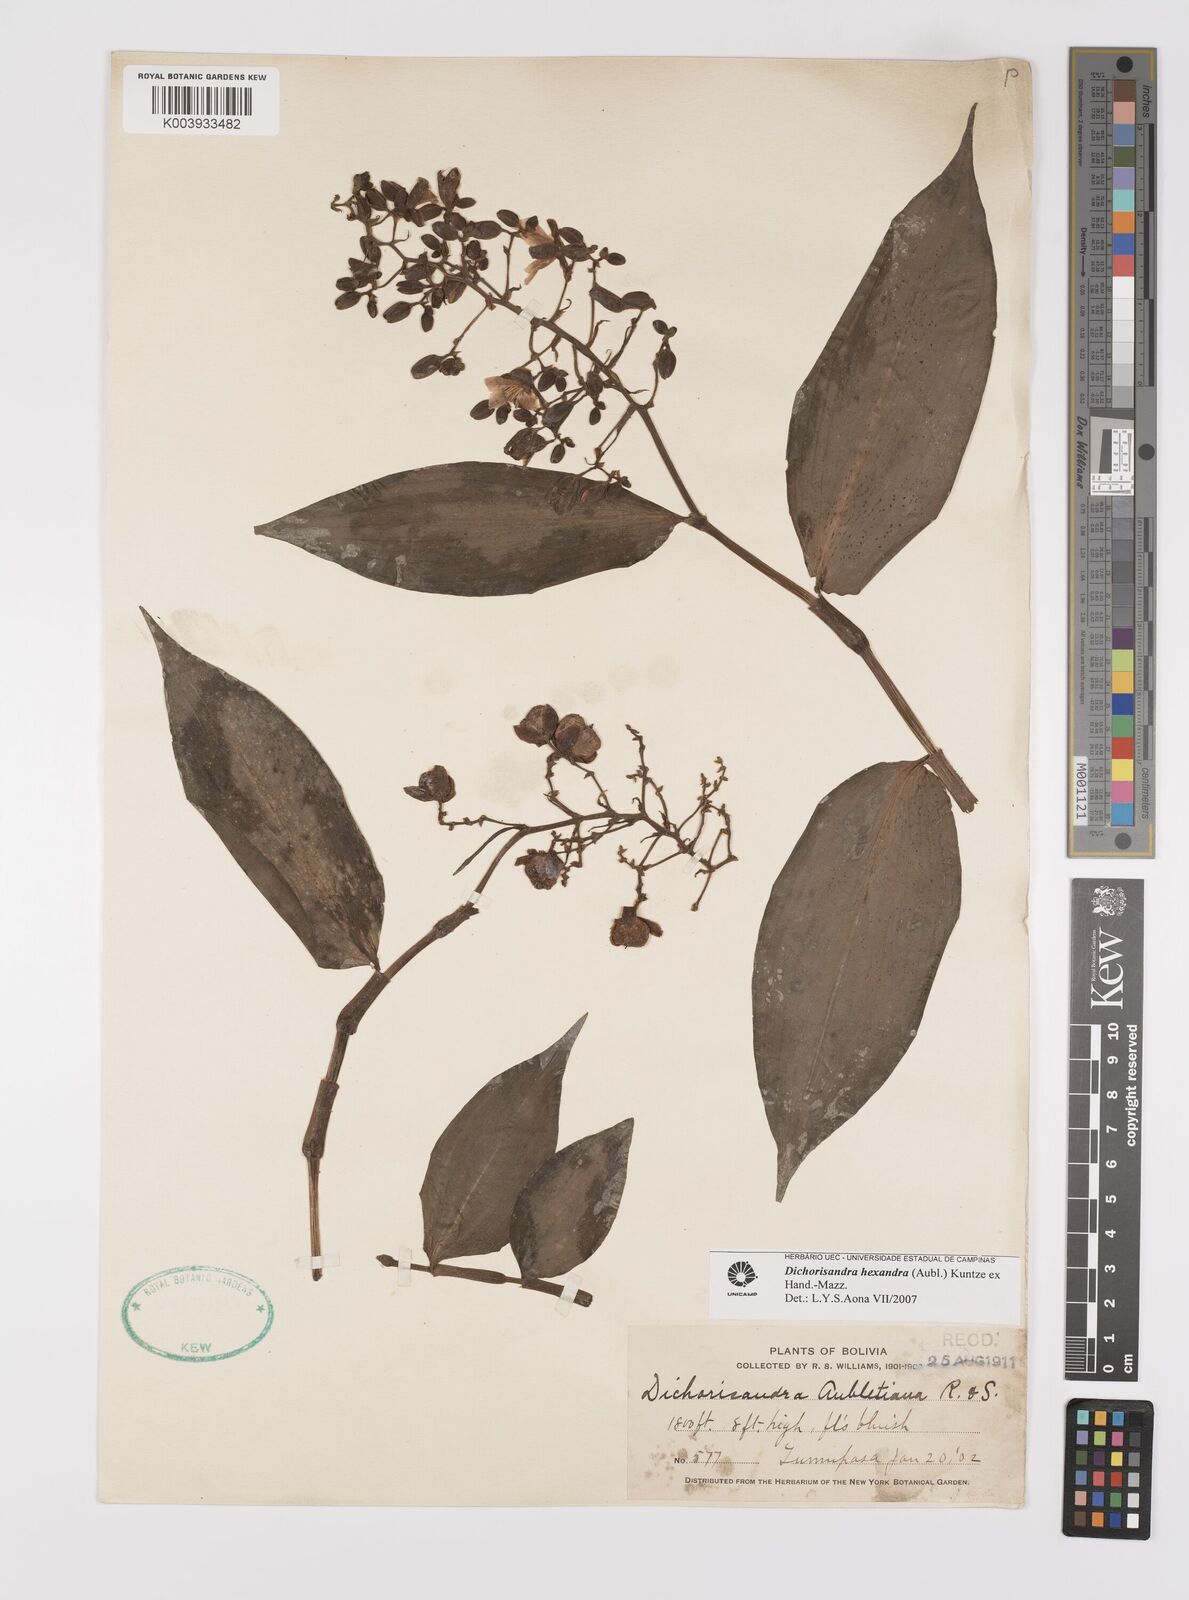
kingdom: Plantae
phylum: Tracheophyta
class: Liliopsida
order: Commelinales
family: Commelinaceae
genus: Dichorisandra
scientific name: Dichorisandra hexandra
